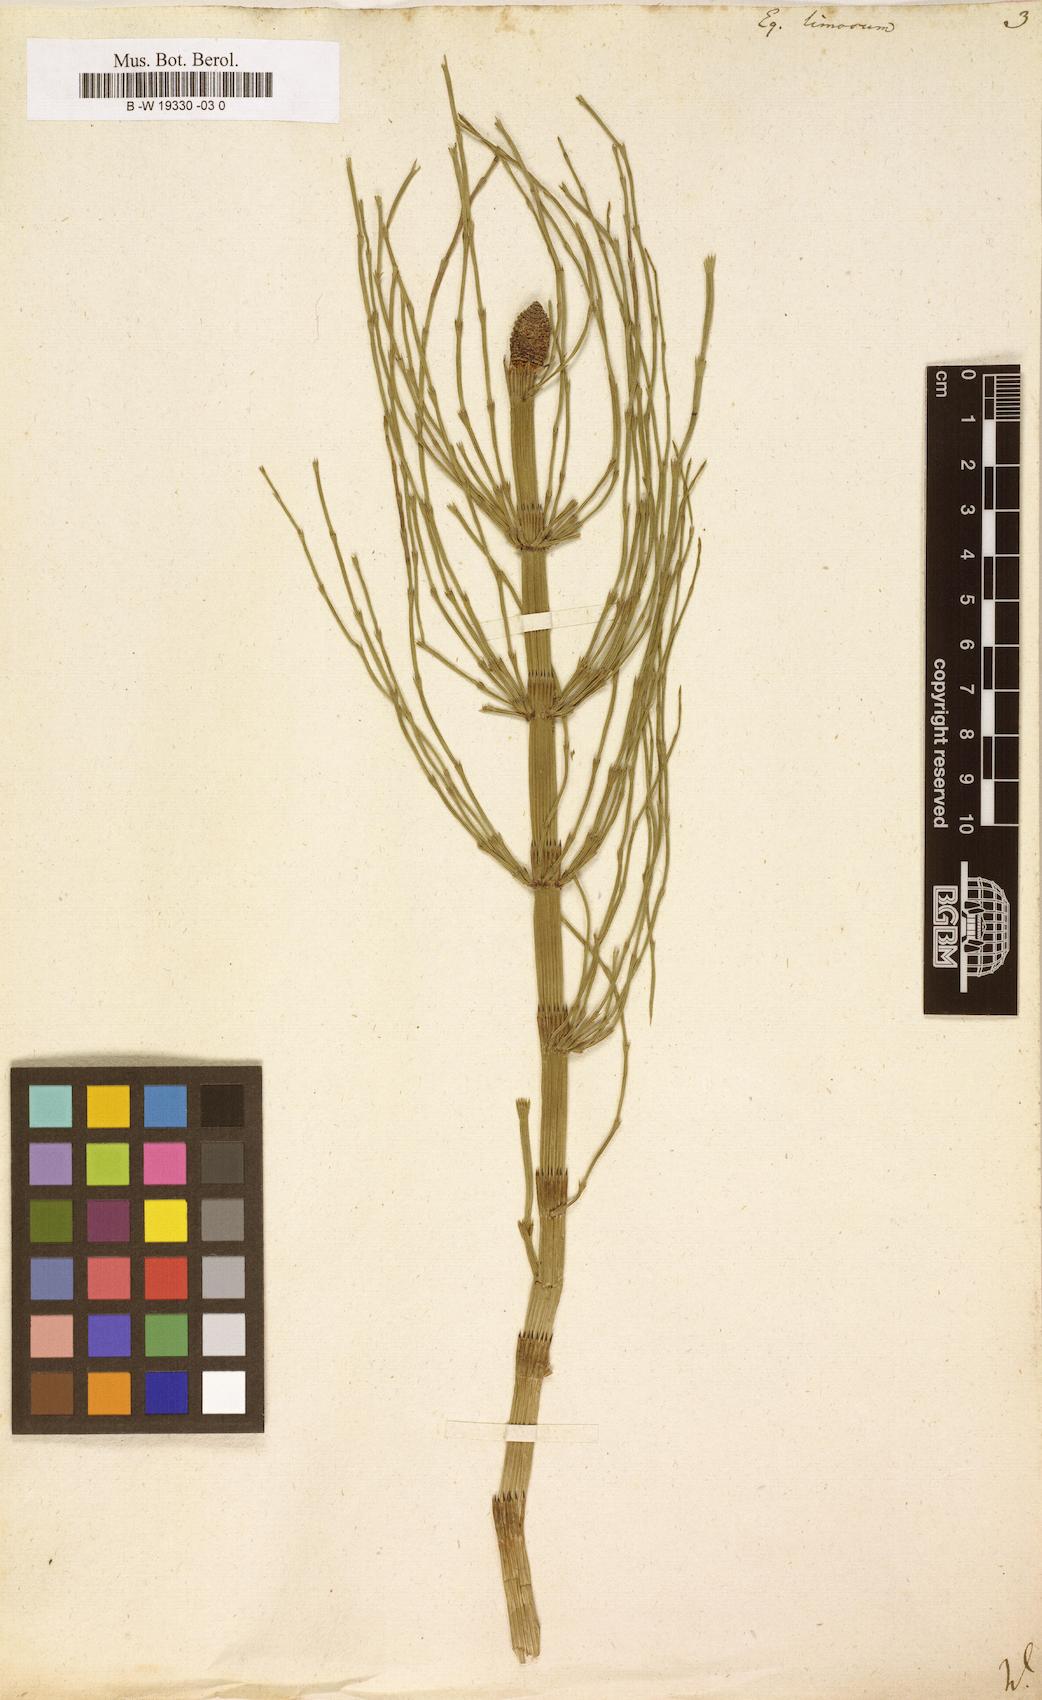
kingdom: Plantae
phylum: Tracheophyta
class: Polypodiopsida
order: Equisetales
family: Equisetaceae
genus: Equisetum
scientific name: Equisetum fluviatile
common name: Water horsetail
